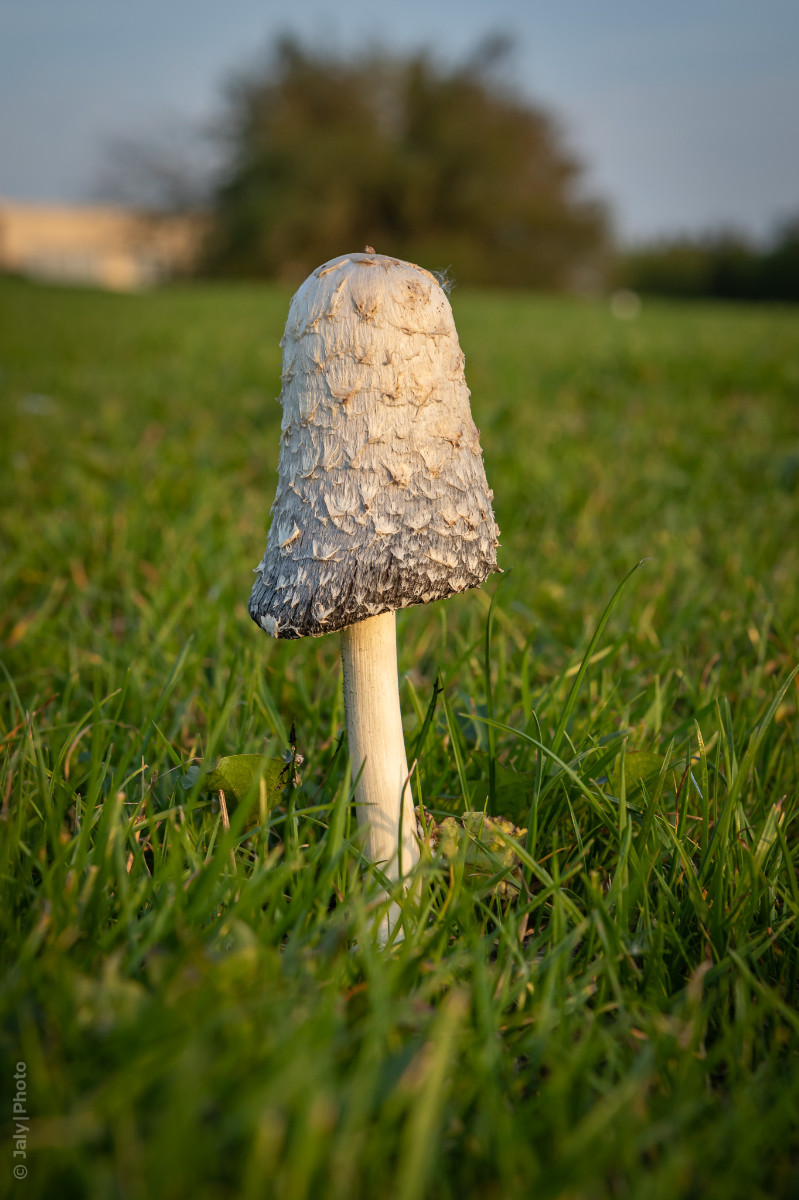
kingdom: Fungi
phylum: Basidiomycota
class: Agaricomycetes
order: Agaricales
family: Agaricaceae
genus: Coprinus
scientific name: Coprinus comatus
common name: stor parykhat
